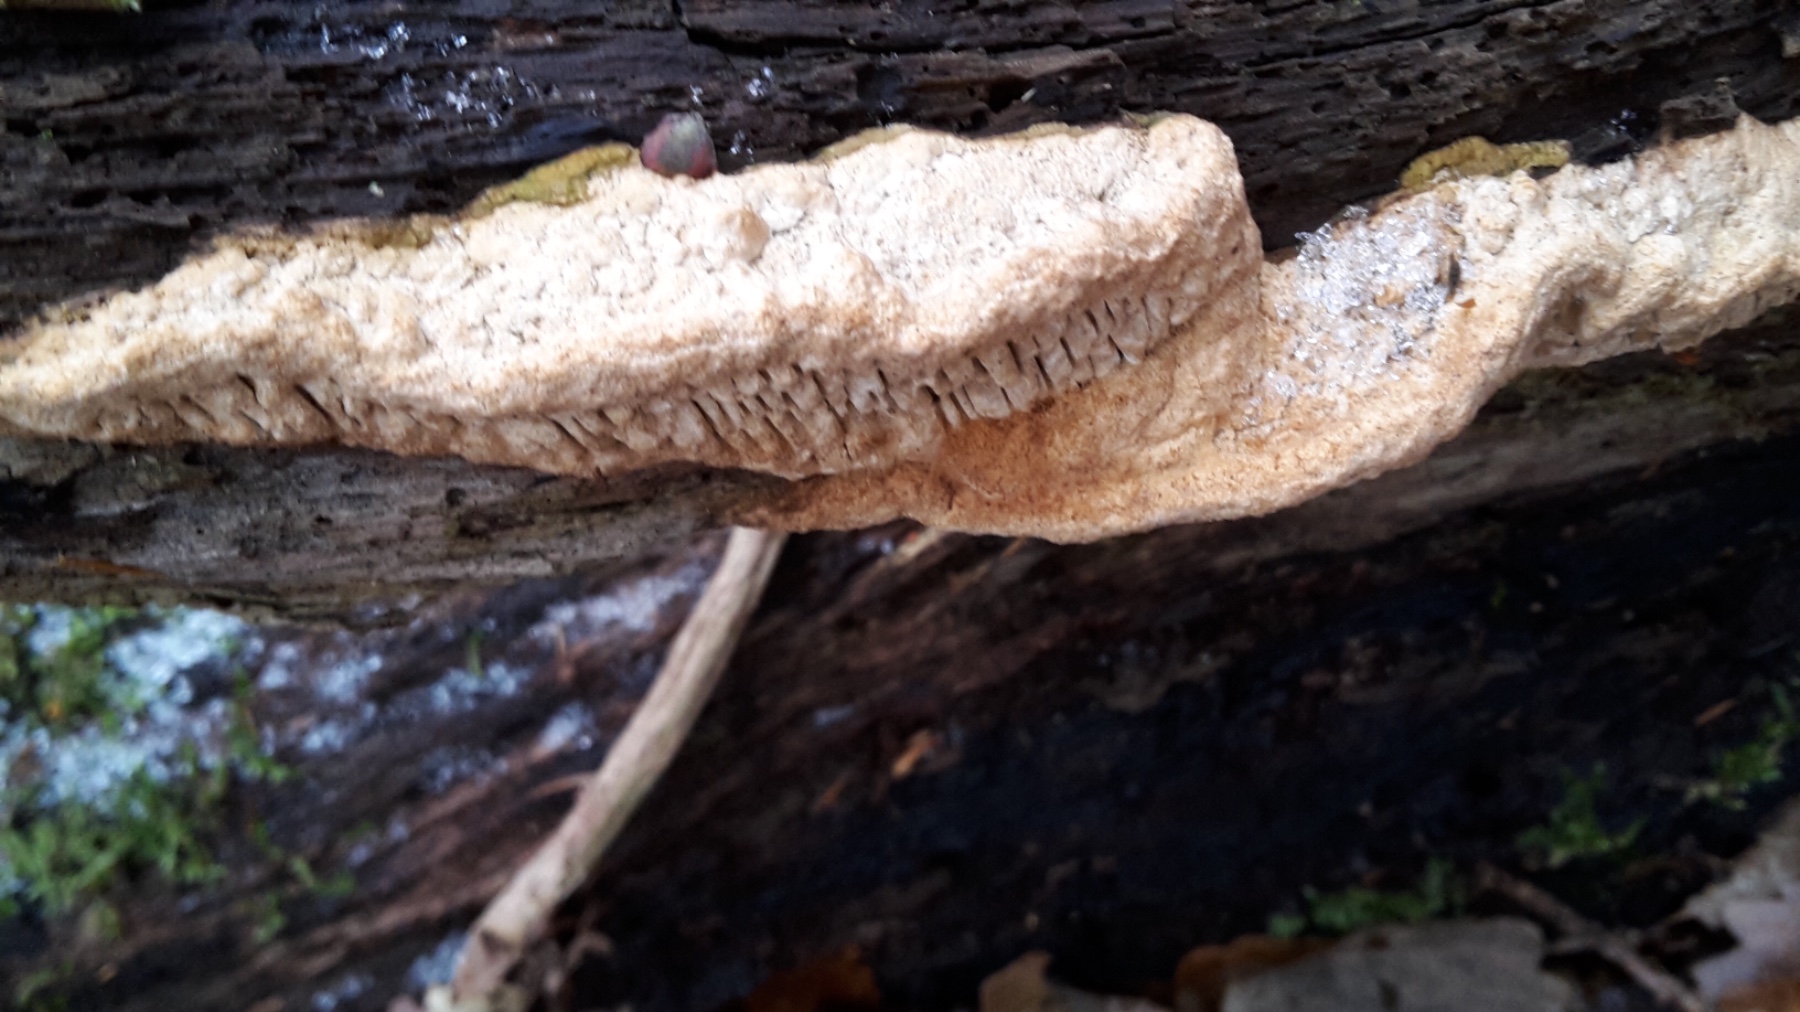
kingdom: Fungi
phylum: Basidiomycota
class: Agaricomycetes
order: Polyporales
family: Fomitopsidaceae
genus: Daedalea
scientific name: Daedalea quercina
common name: ege-labyrintsvamp
